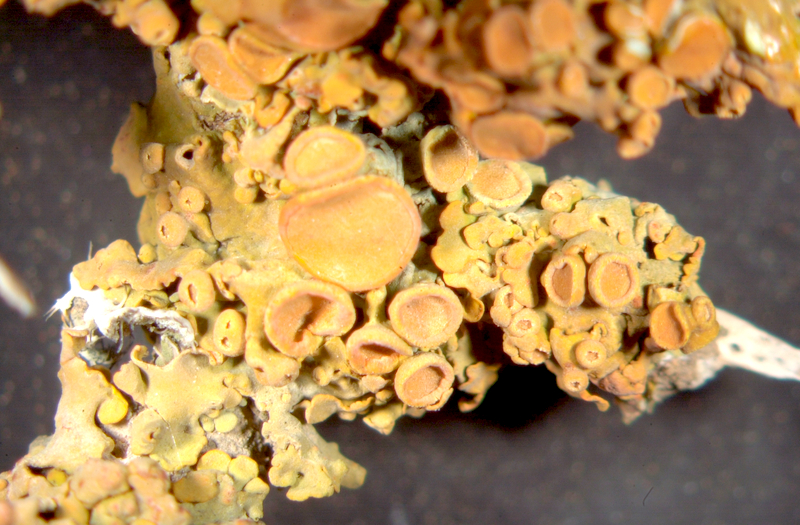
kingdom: Fungi
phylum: Ascomycota
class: Lecanoromycetes
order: Teloschistales
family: Teloschistaceae
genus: Dufourea
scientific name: Dufourea dissectula
